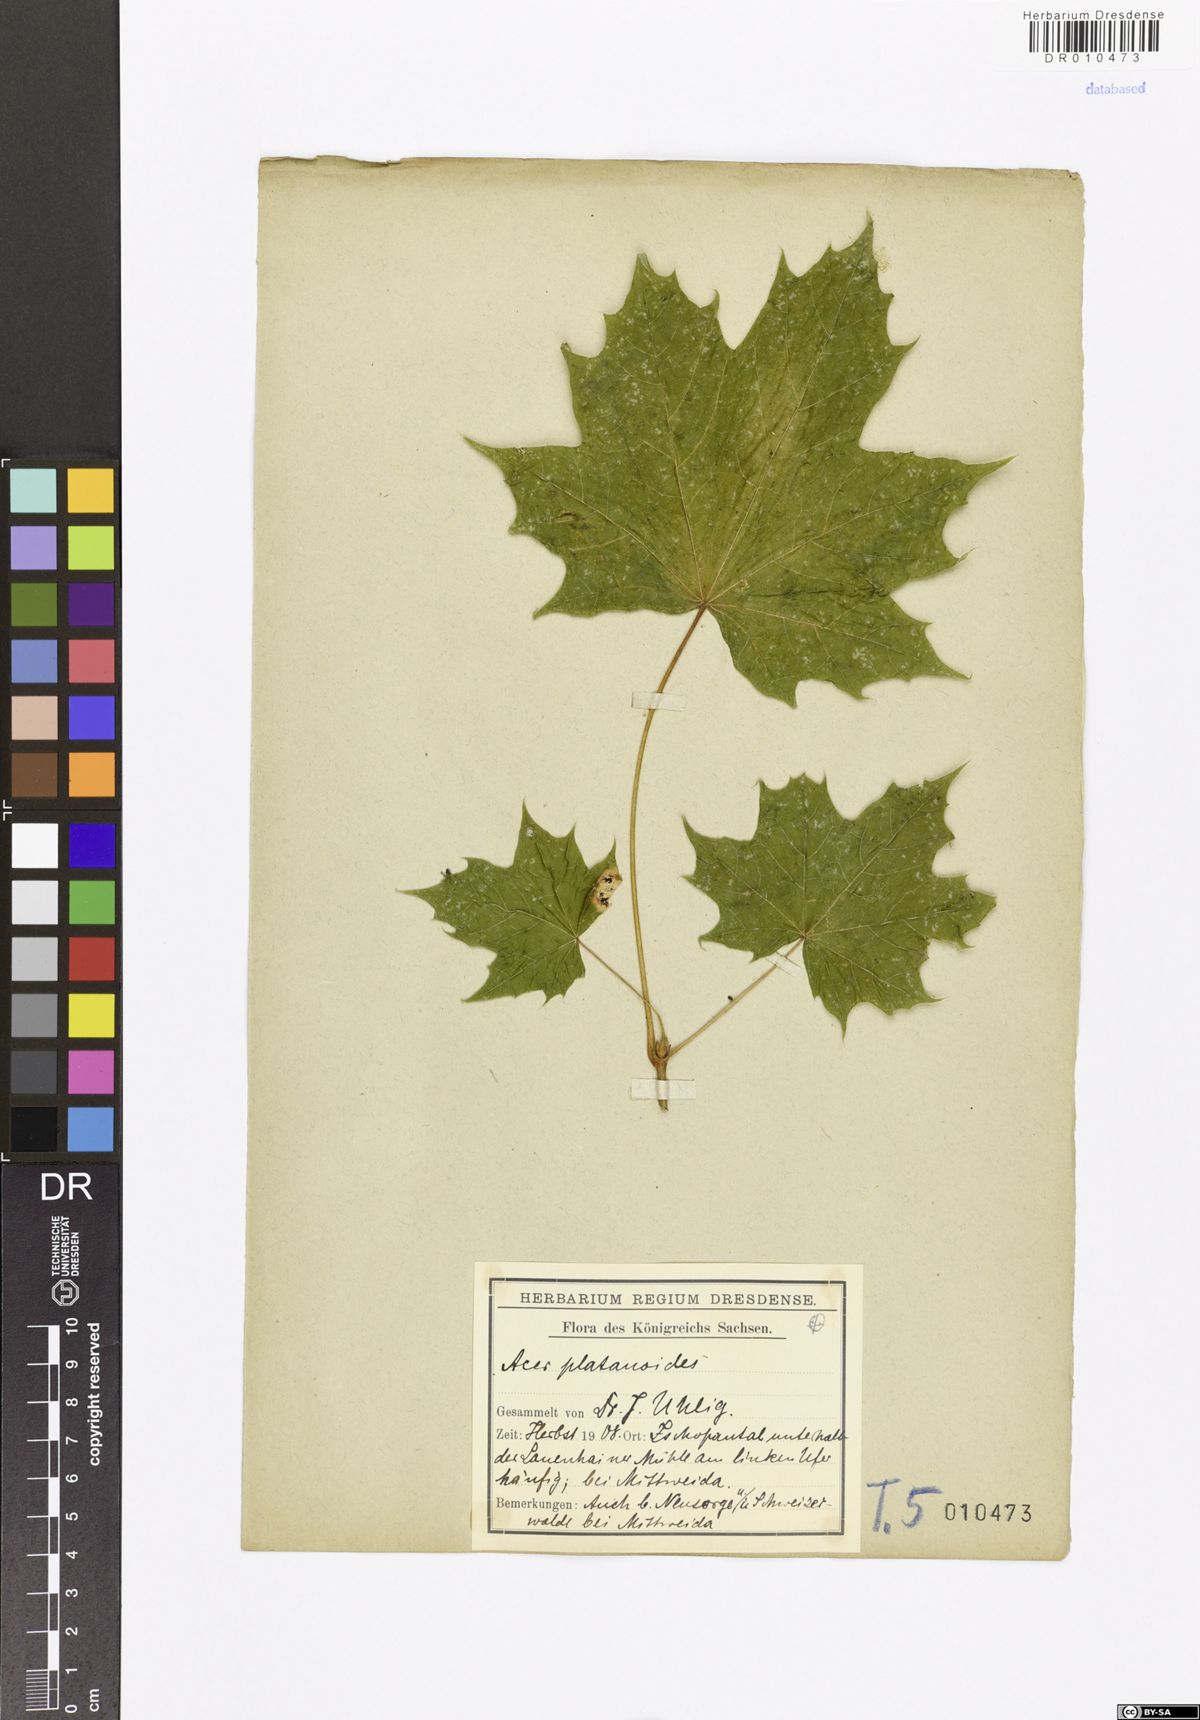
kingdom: Plantae
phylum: Tracheophyta
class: Magnoliopsida
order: Sapindales
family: Sapindaceae
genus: Acer
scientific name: Acer platanoides
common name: Norway maple
